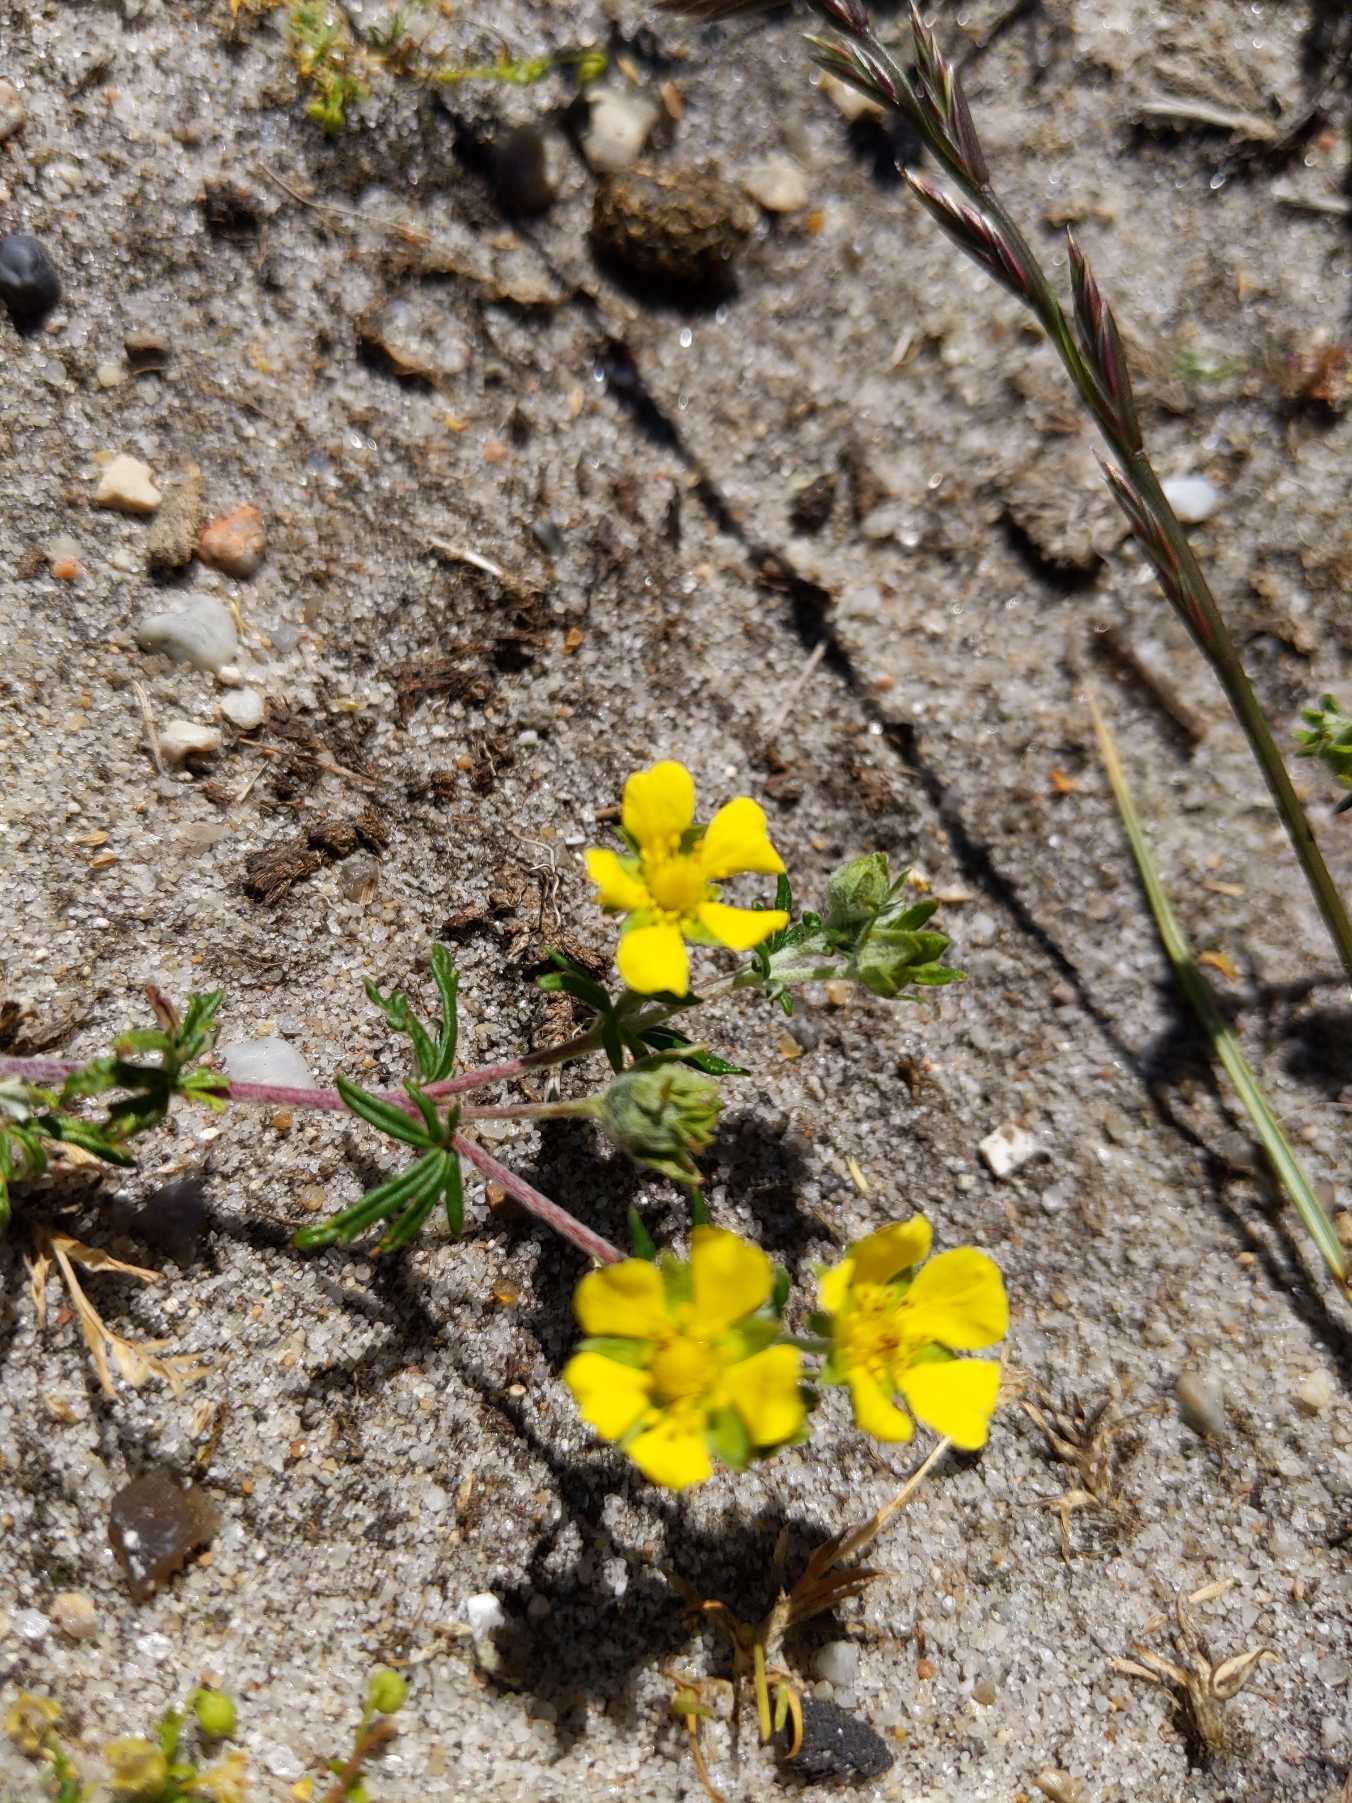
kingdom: Plantae
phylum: Tracheophyta
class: Magnoliopsida
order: Rosales
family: Rosaceae
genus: Potentilla
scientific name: Potentilla argentea
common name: Sølv-potentil
